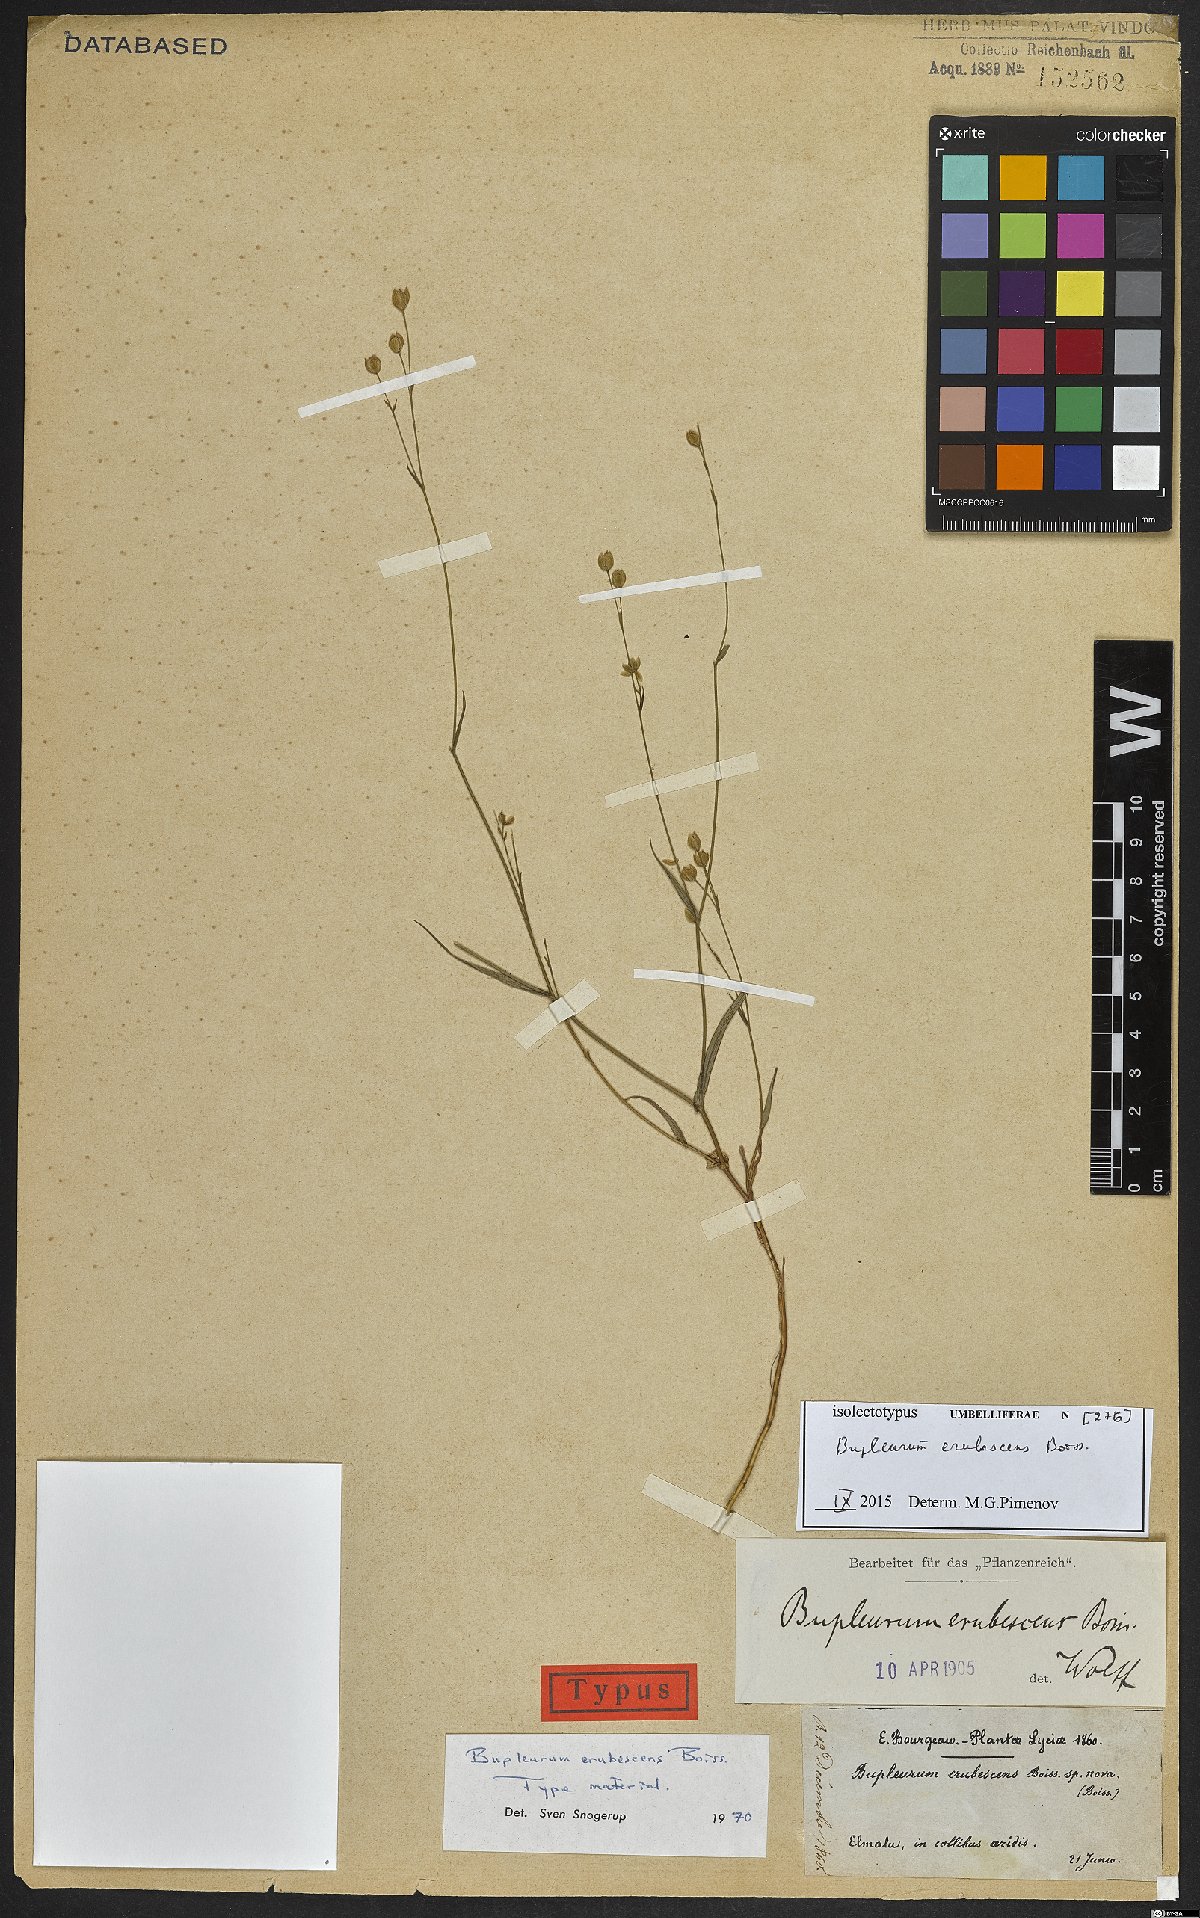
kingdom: Plantae
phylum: Tracheophyta
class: Magnoliopsida
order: Apiales
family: Apiaceae
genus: Bupleurum
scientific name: Bupleurum erubescens
